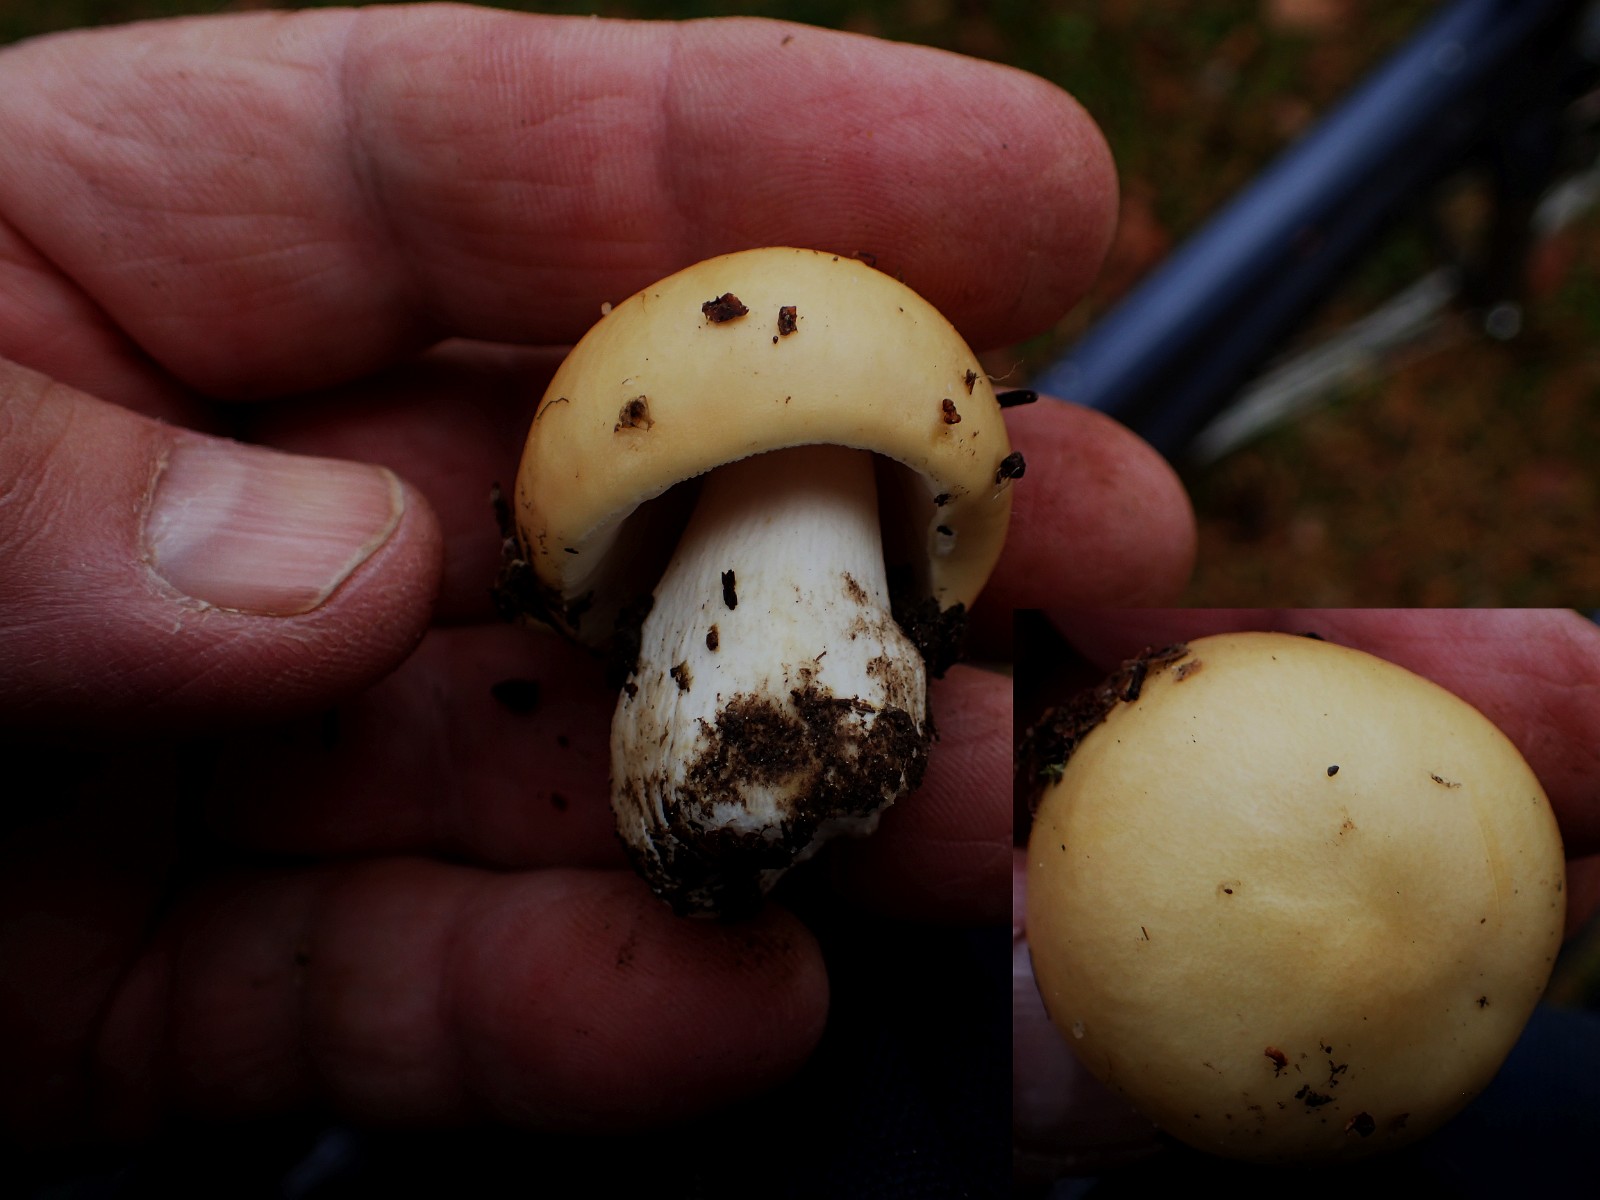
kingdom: Fungi
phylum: Basidiomycota
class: Agaricomycetes
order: Russulales
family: Russulaceae
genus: Russula
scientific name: Russula violeipes
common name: ferskengul skørhat
